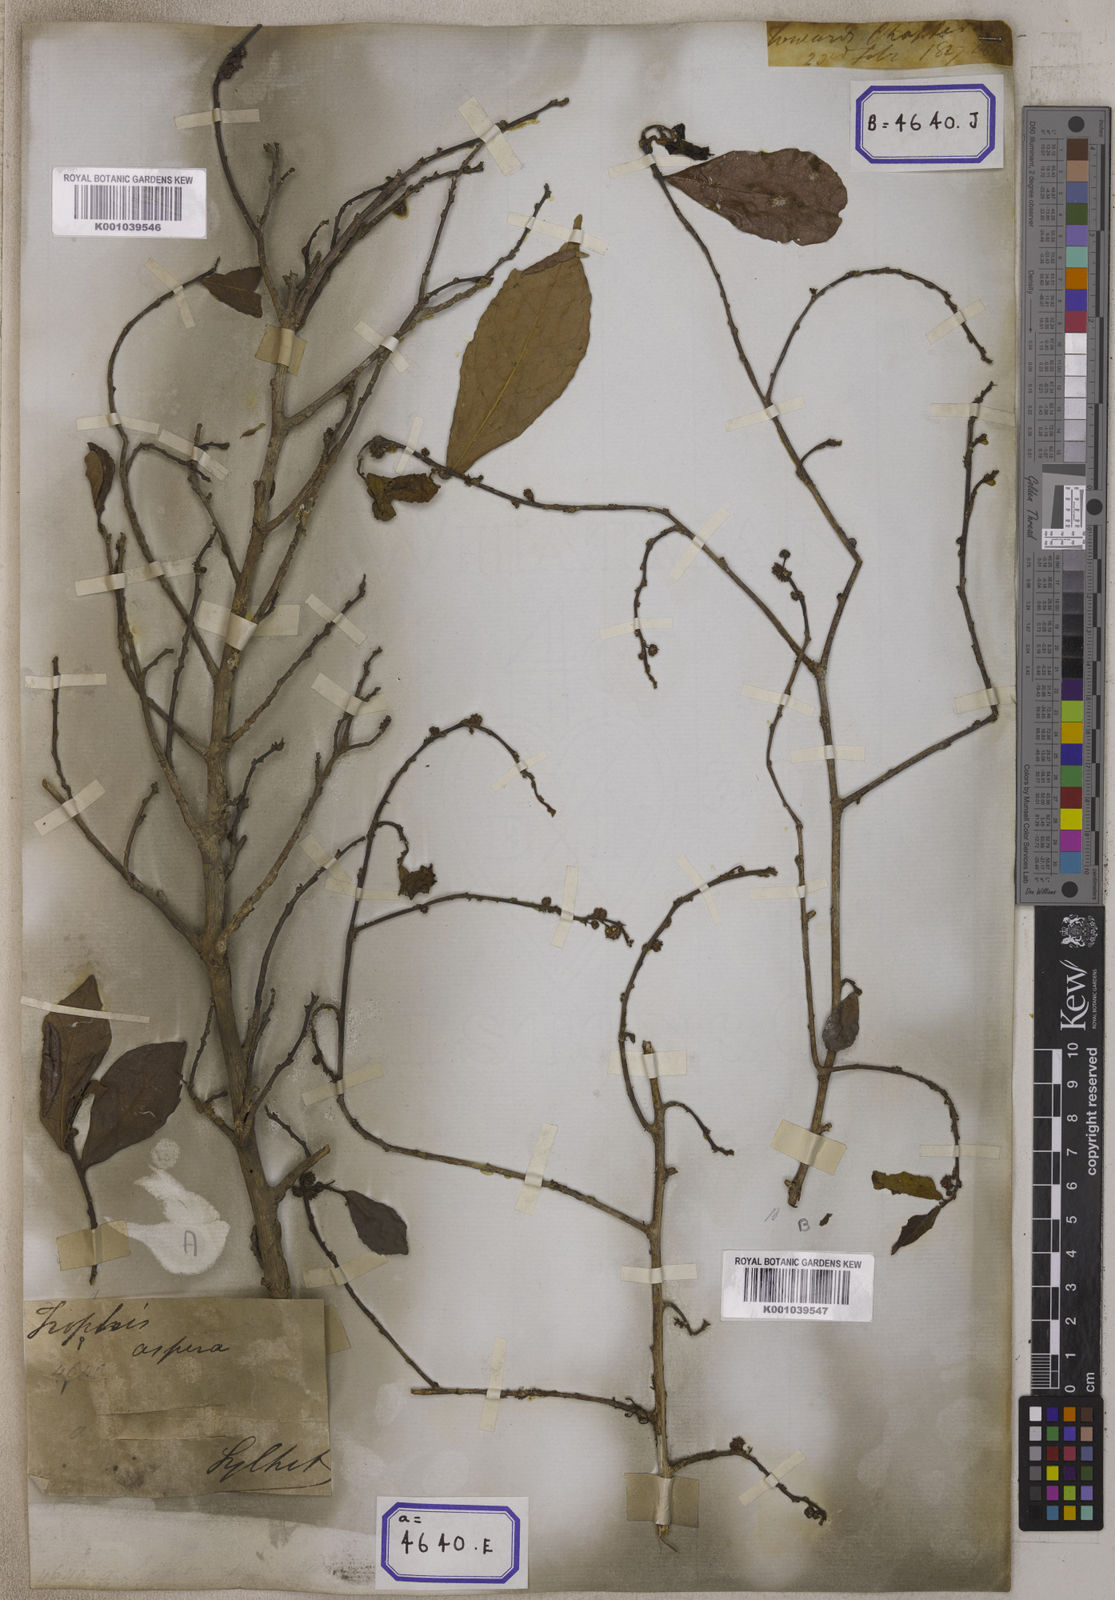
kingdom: Plantae
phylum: Tracheophyta
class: Magnoliopsida
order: Rosales
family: Moraceae
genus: Streblus
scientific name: Streblus asper
